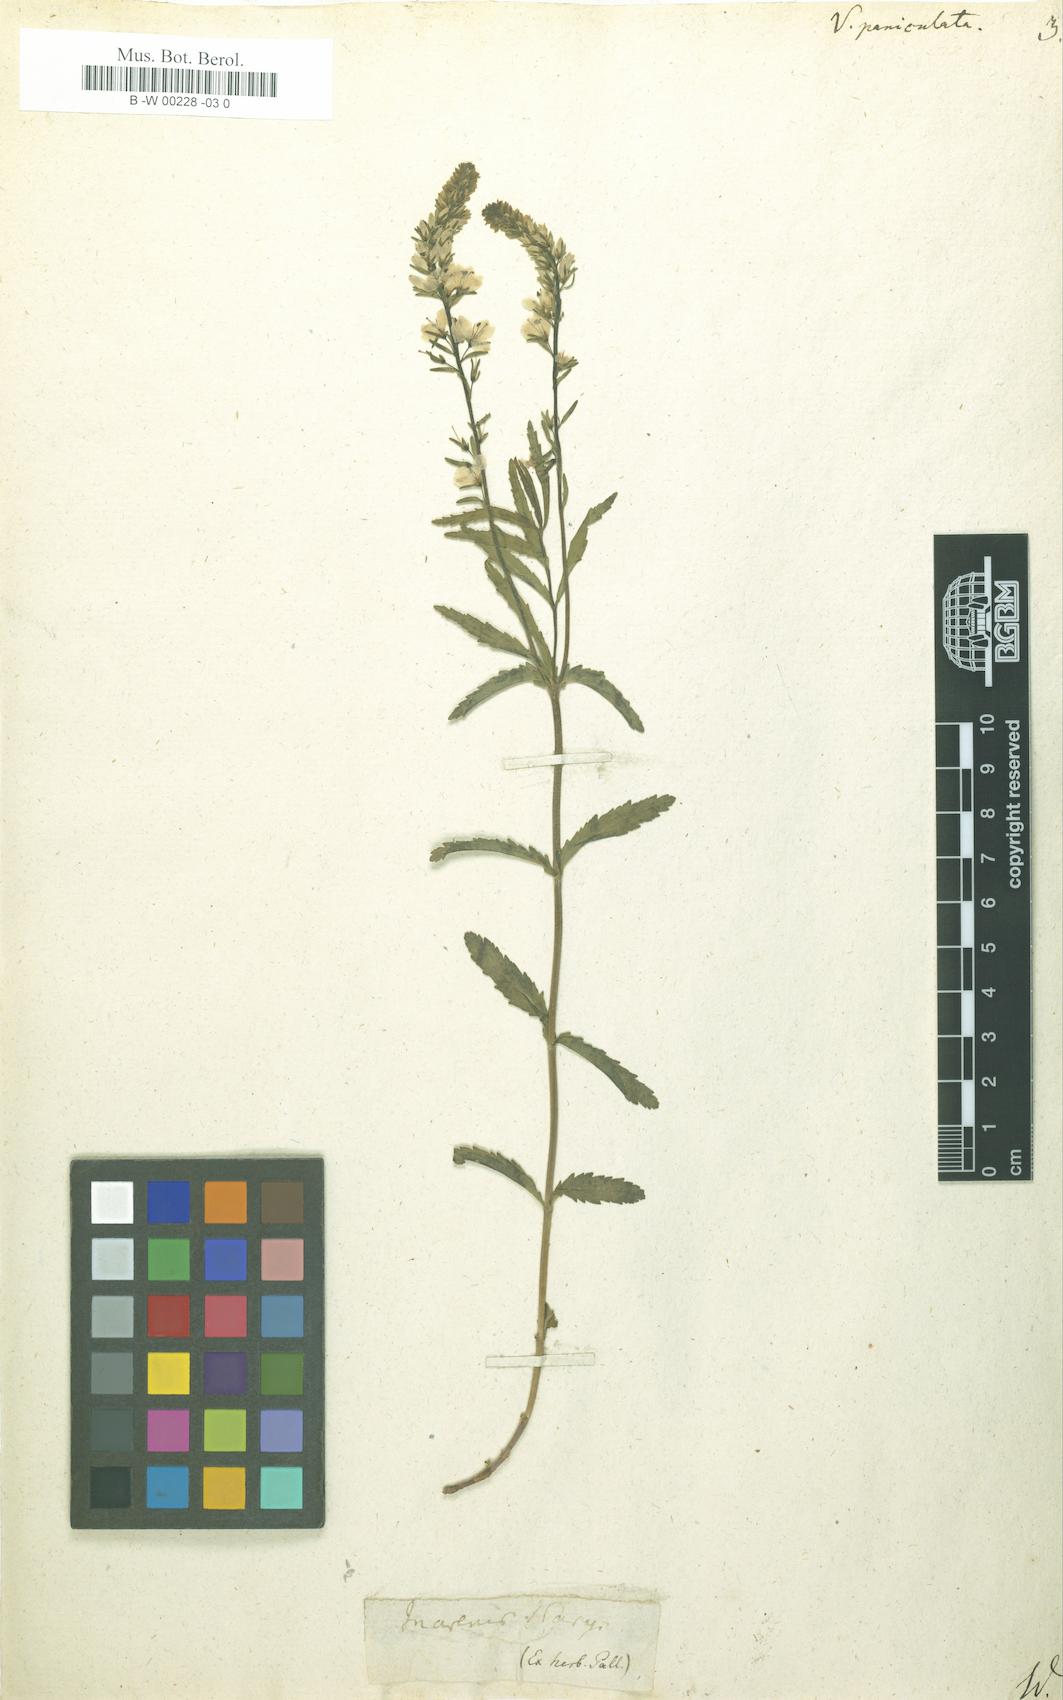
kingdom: Plantae
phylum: Tracheophyta
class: Magnoliopsida
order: Lamiales
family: Plantaginaceae
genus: Veronica
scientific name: Veronica
